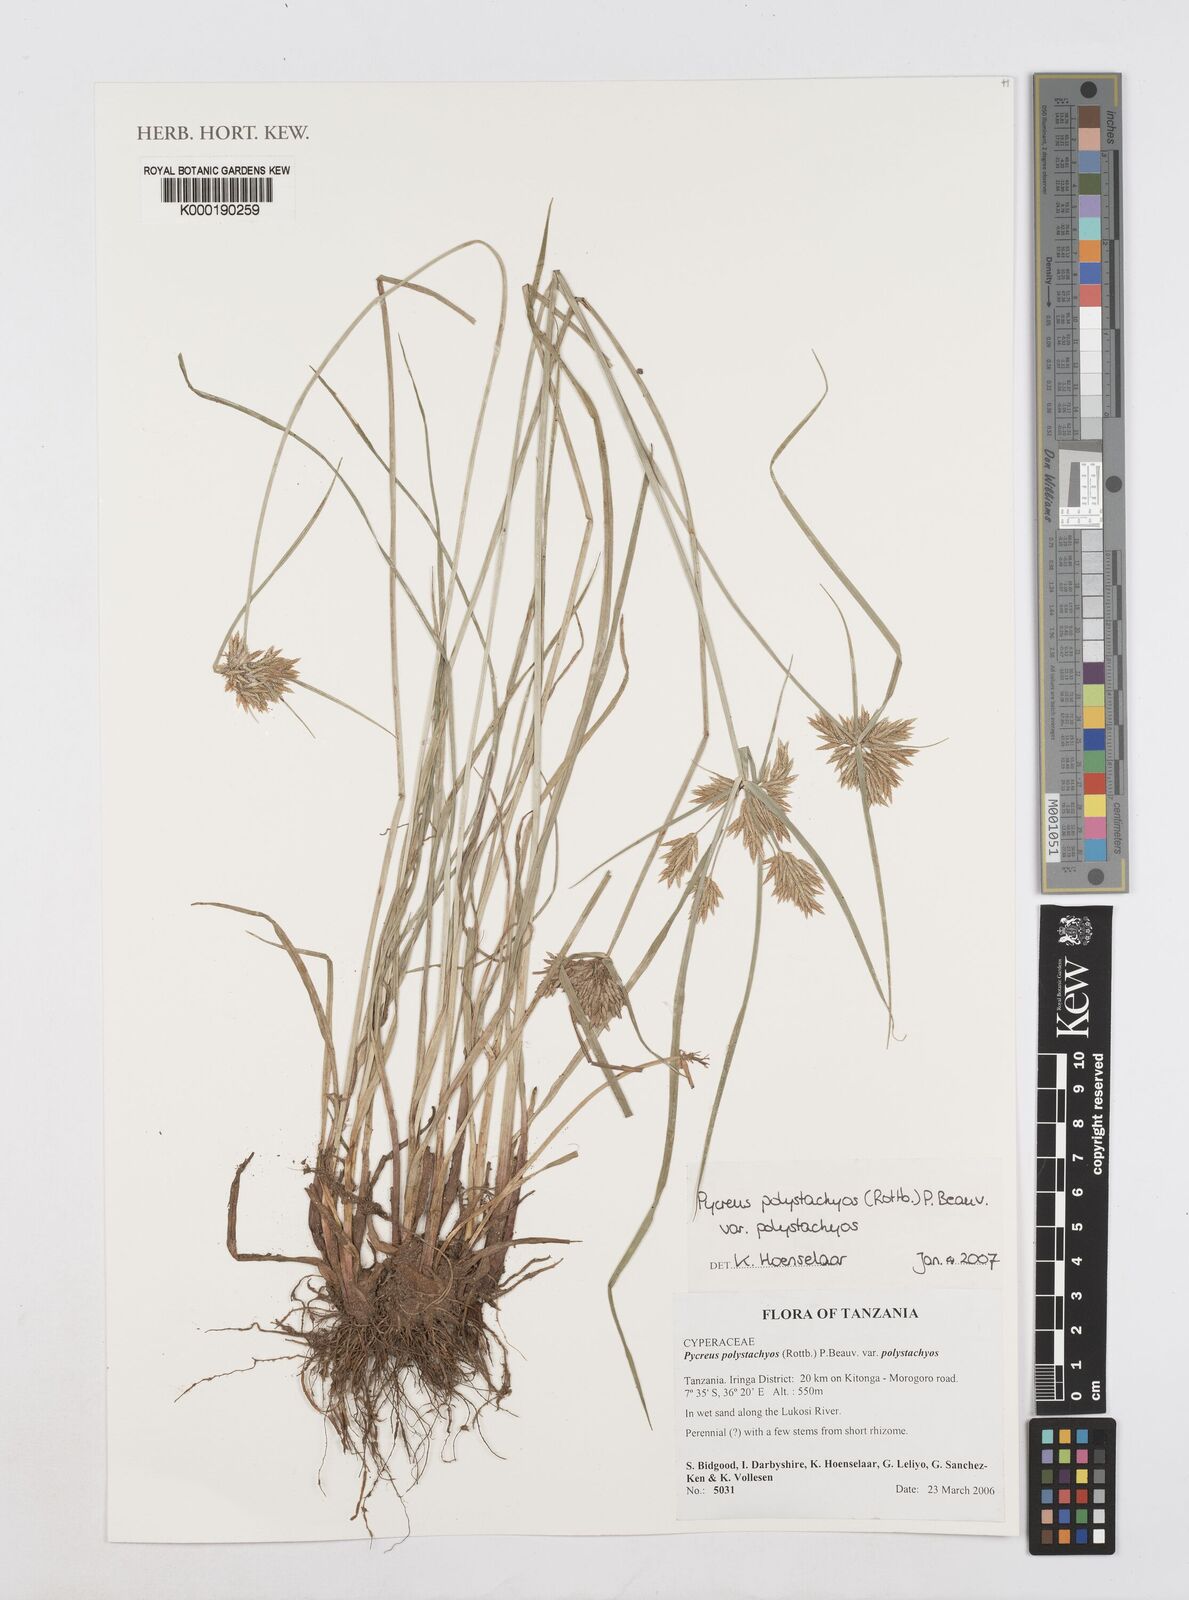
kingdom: Plantae
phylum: Tracheophyta
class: Liliopsida
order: Poales
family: Cyperaceae
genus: Cyperus
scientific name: Cyperus polystachyos
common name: Bunchy flat sedge
